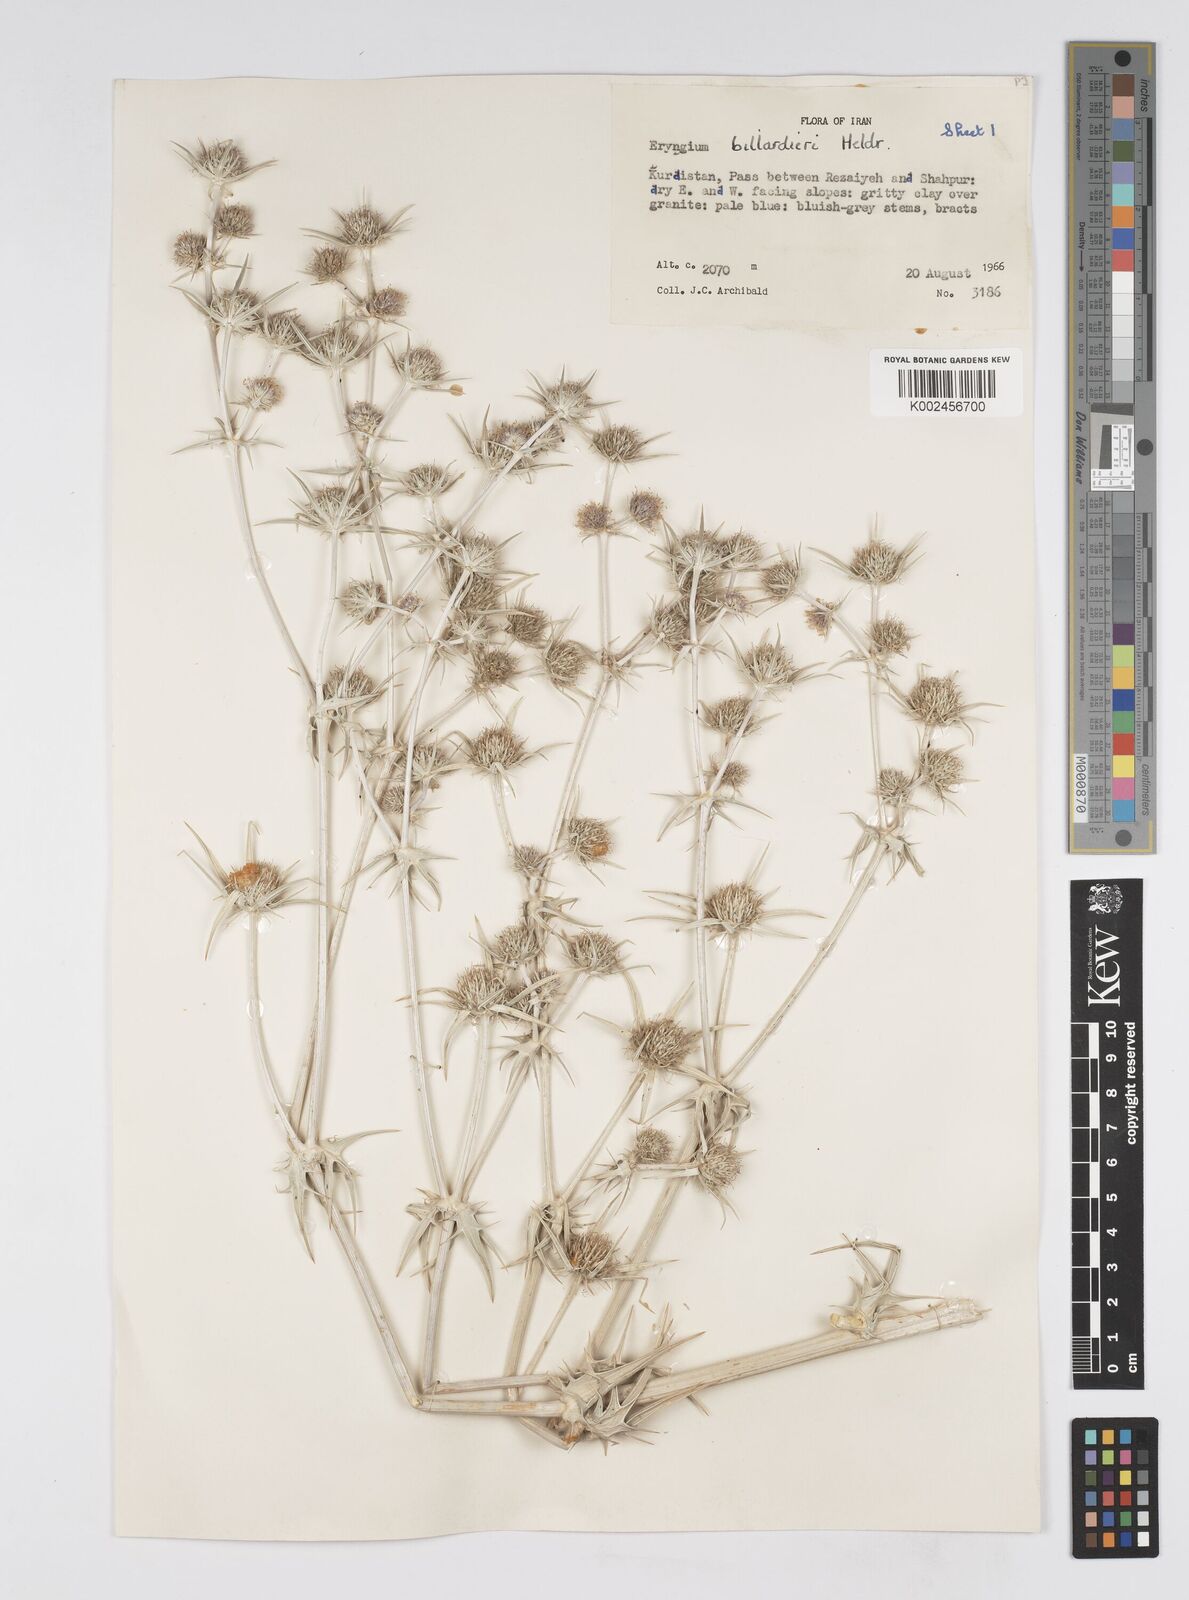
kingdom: Plantae
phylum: Tracheophyta
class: Magnoliopsida
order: Apiales
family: Apiaceae
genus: Eryngium
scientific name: Eryngium heldreichii
